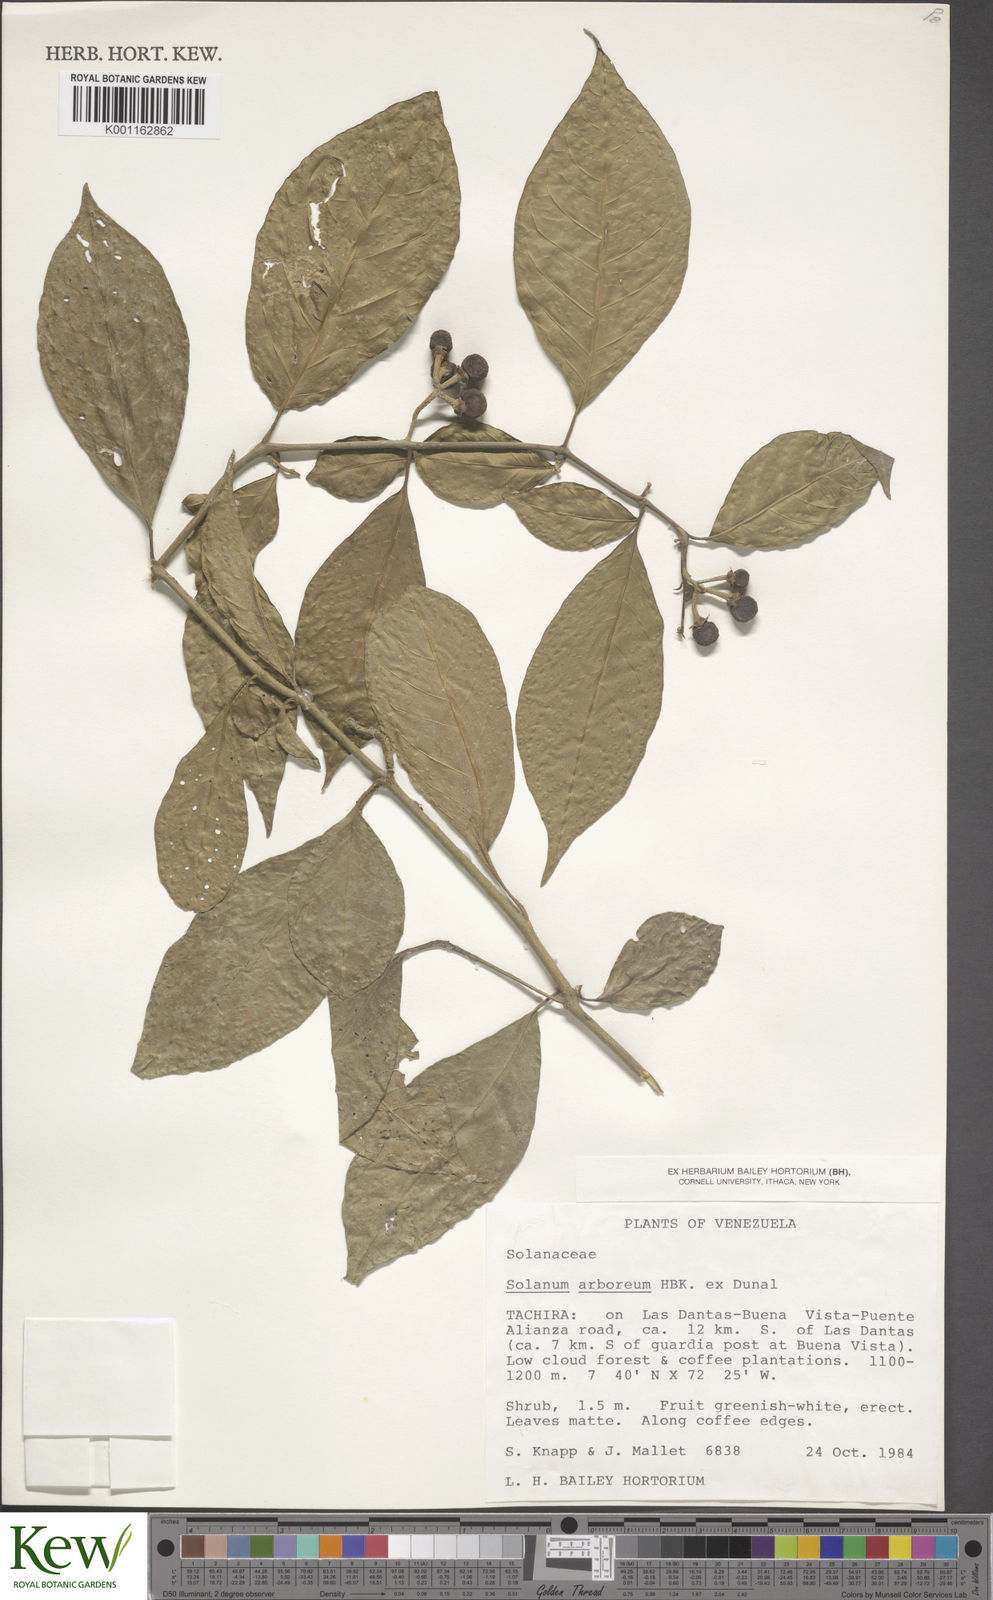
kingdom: Plantae
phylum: Tracheophyta
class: Magnoliopsida
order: Solanales
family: Solanaceae
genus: Solanum
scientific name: Solanum arboreum
